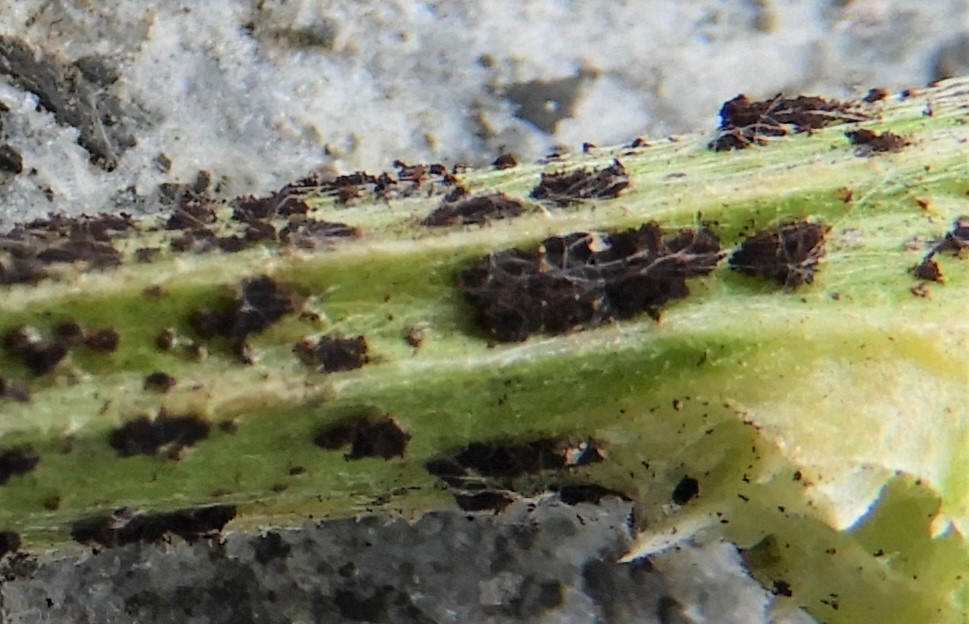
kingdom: Fungi
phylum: Basidiomycota
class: Pucciniomycetes
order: Pucciniales
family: Pucciniaceae
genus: Puccinia
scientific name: Puccinia cyani
